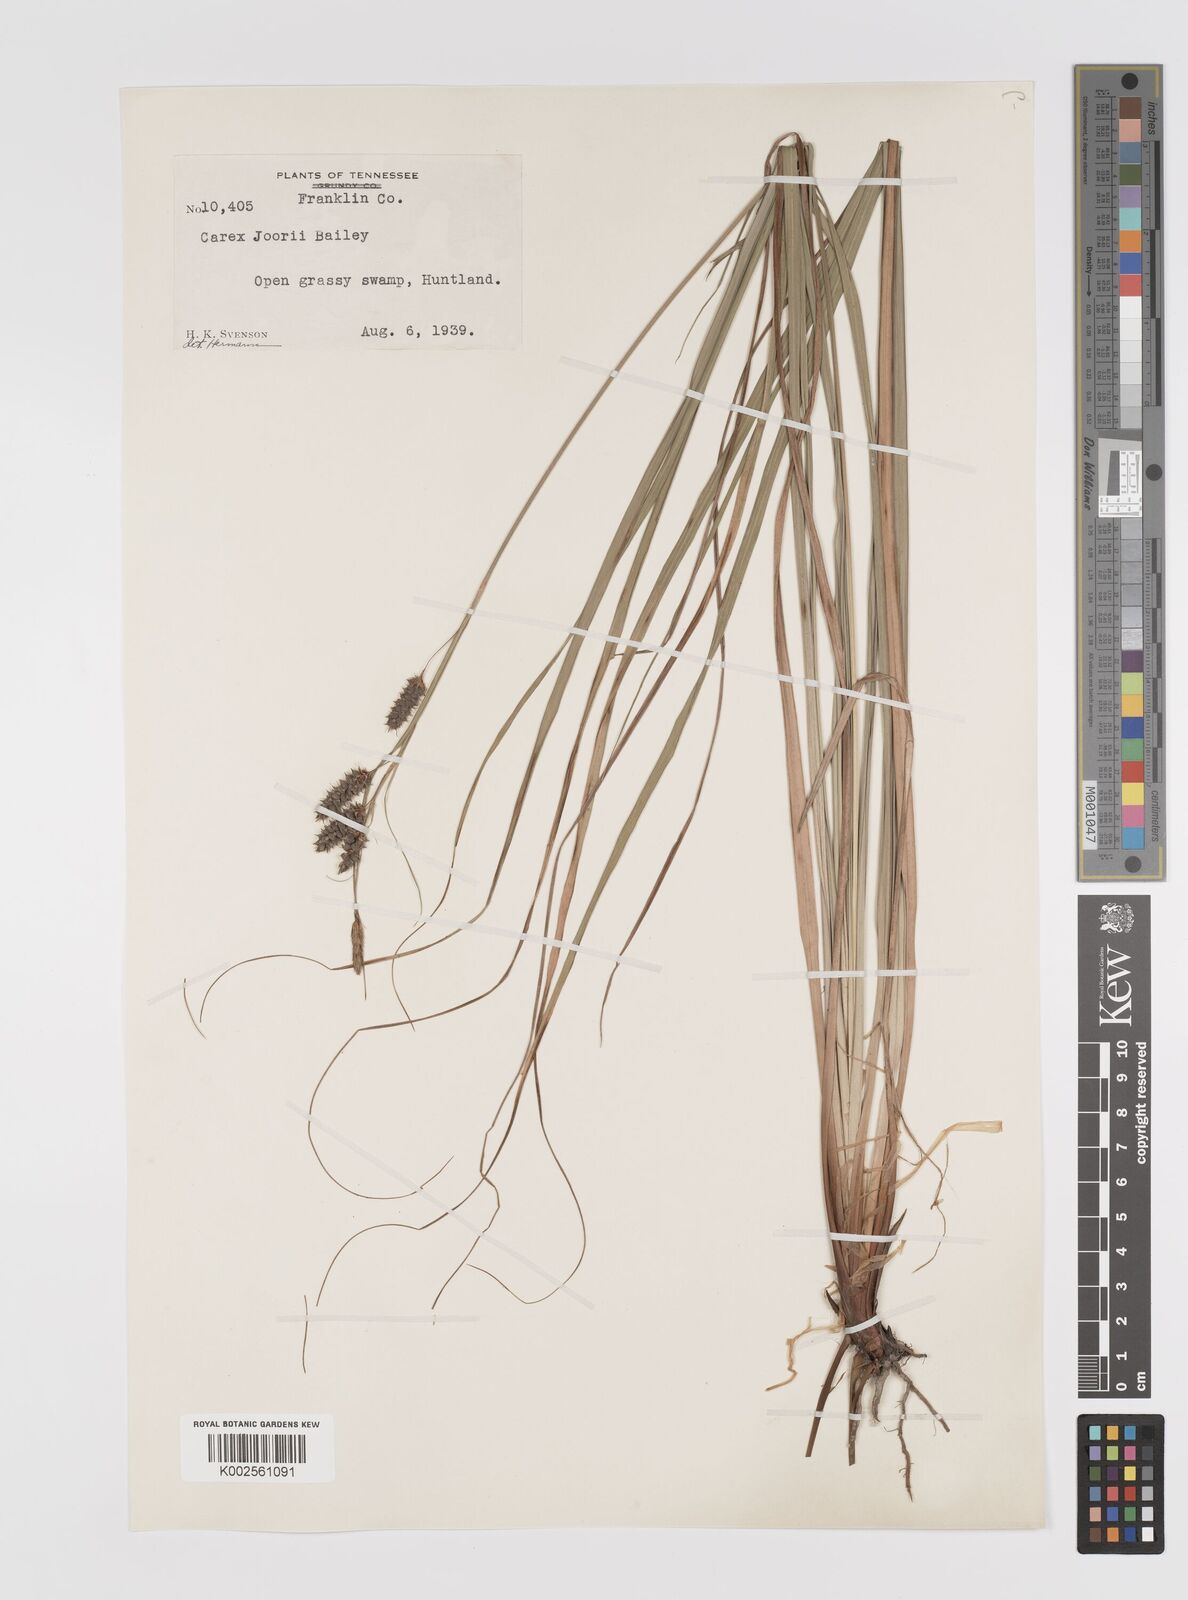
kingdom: Plantae
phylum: Tracheophyta
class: Liliopsida
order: Poales
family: Cyperaceae
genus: Carex
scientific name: Carex joorii
